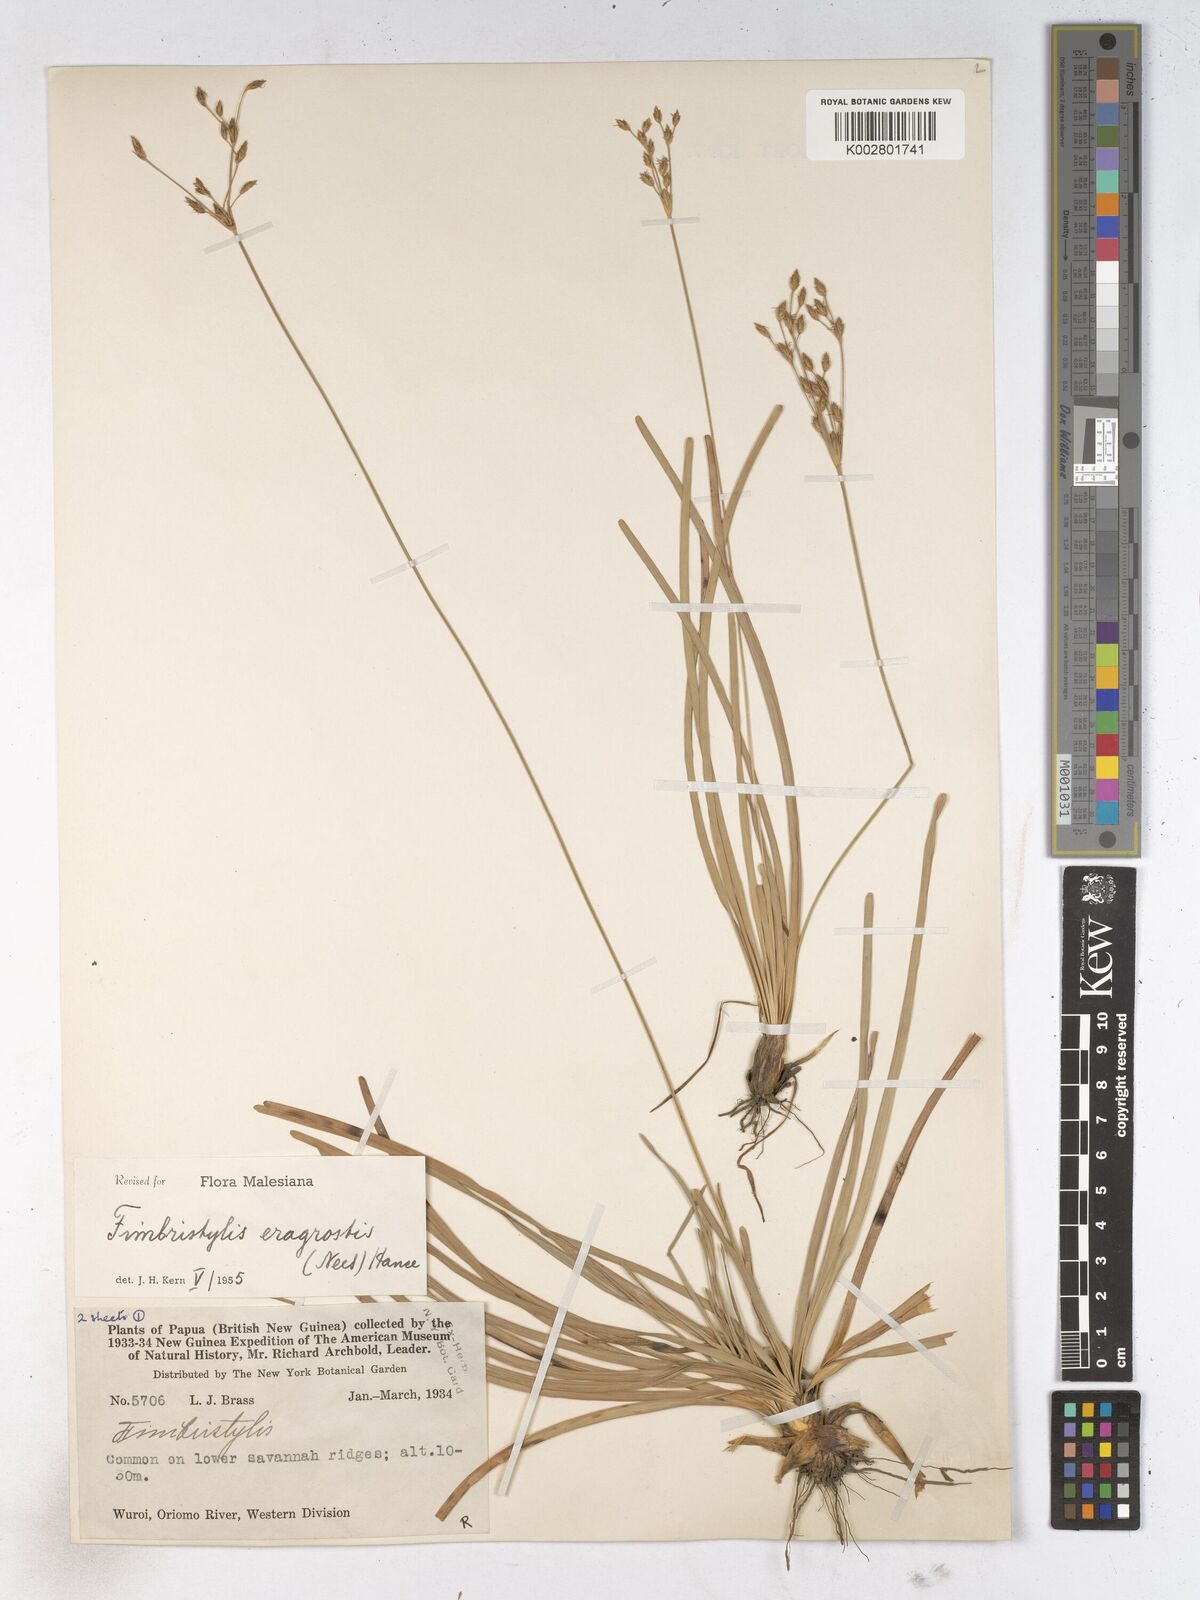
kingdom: Plantae
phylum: Tracheophyta
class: Liliopsida
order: Poales
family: Cyperaceae
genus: Fimbristylis
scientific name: Fimbristylis eragrostis
